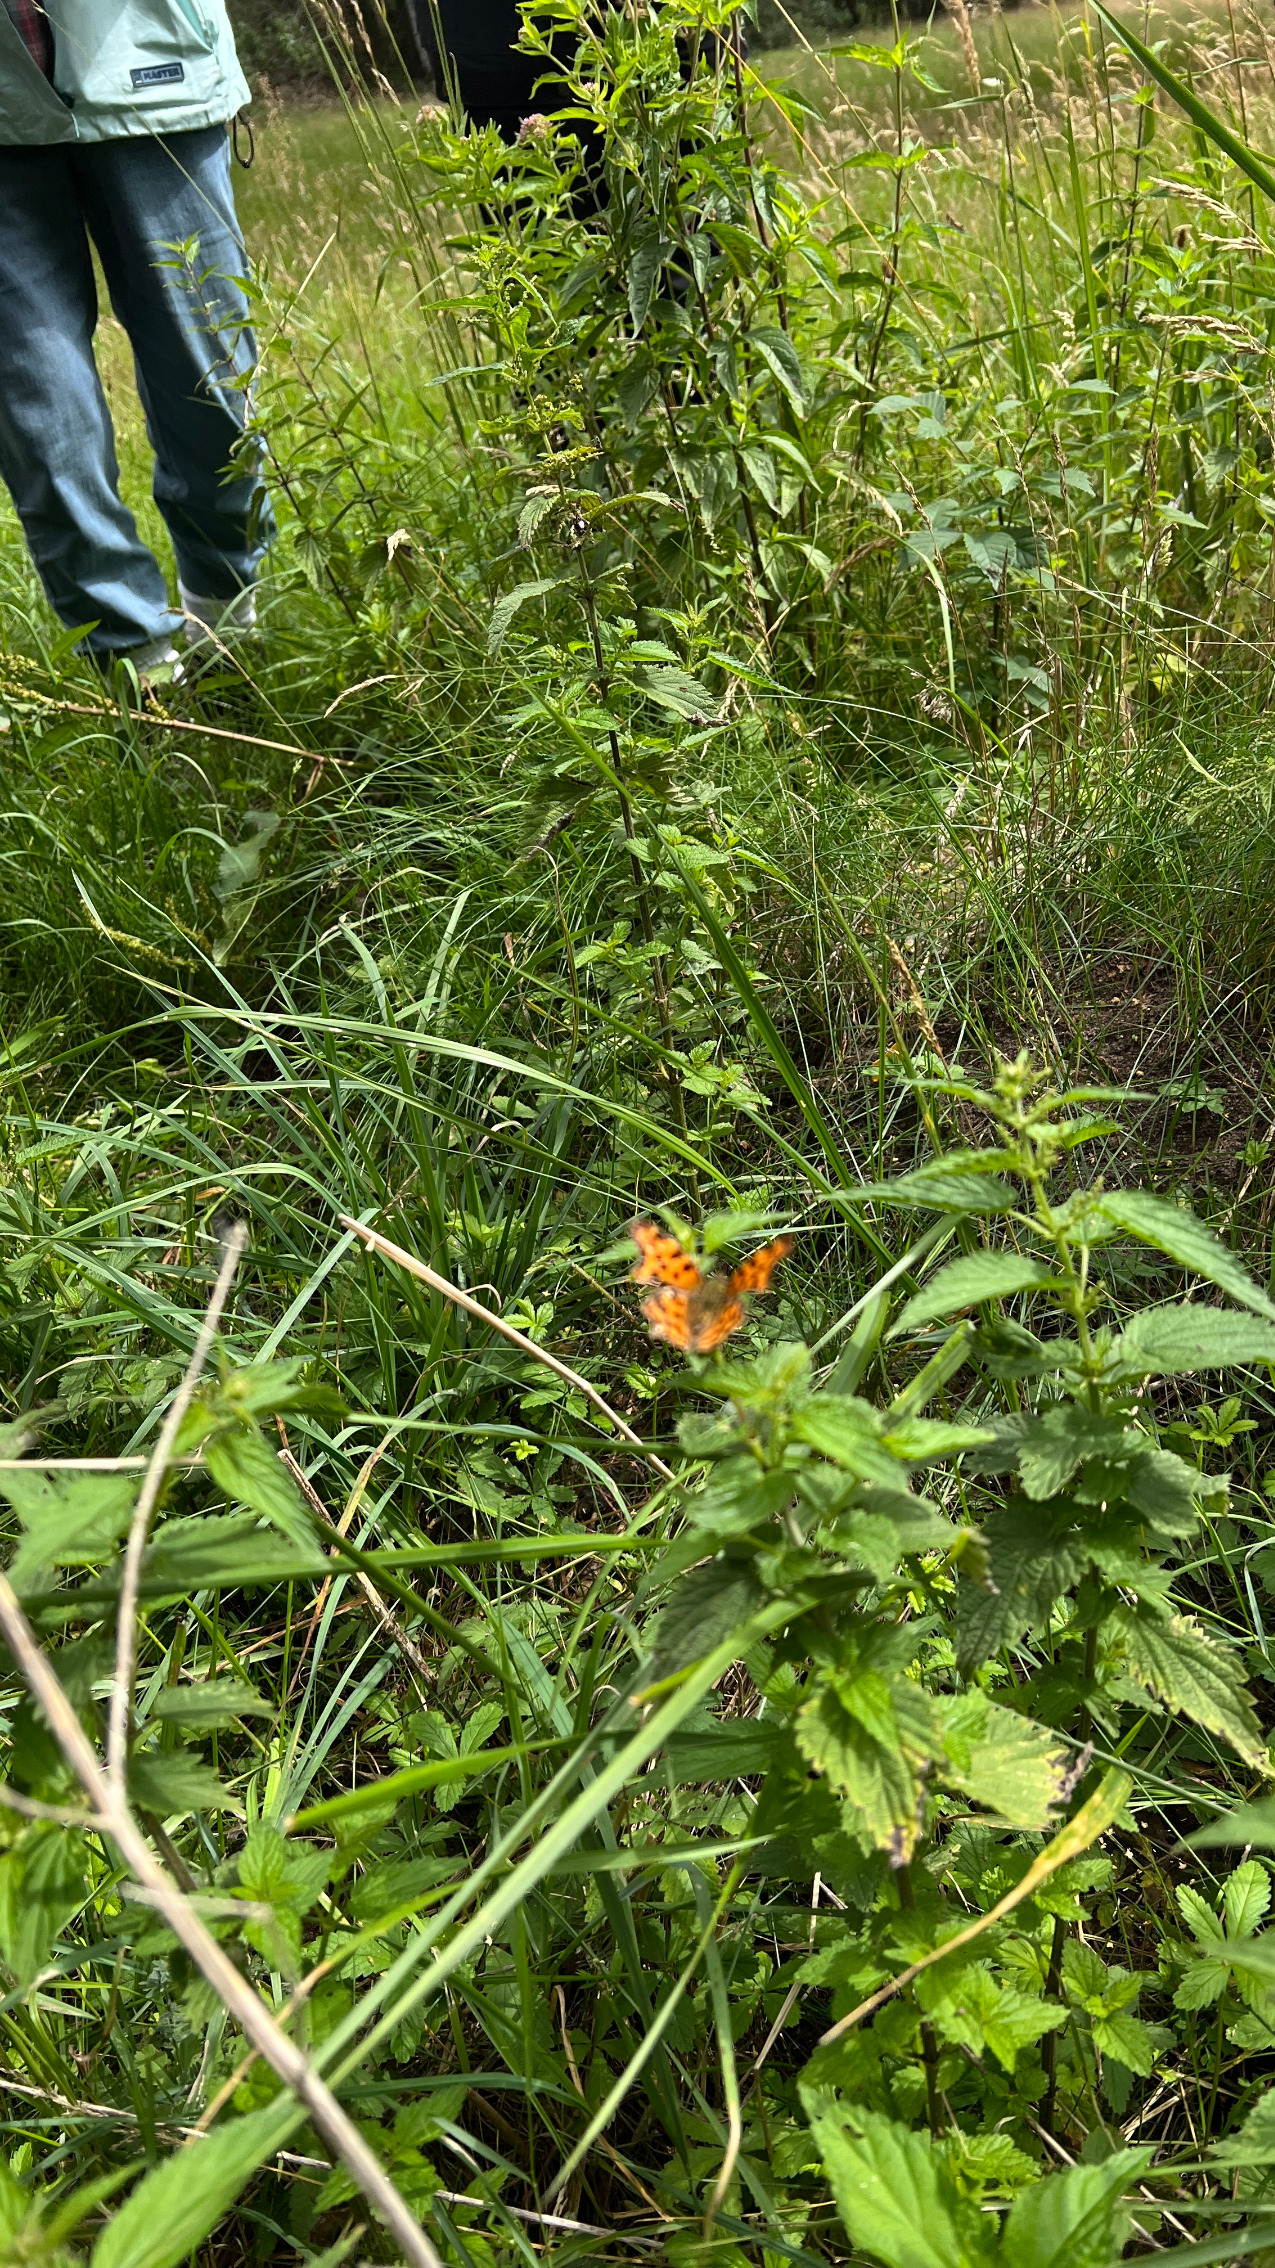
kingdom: Animalia
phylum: Arthropoda
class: Insecta
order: Lepidoptera
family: Nymphalidae
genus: Polygonia
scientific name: Polygonia c-album
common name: Det hvide C
